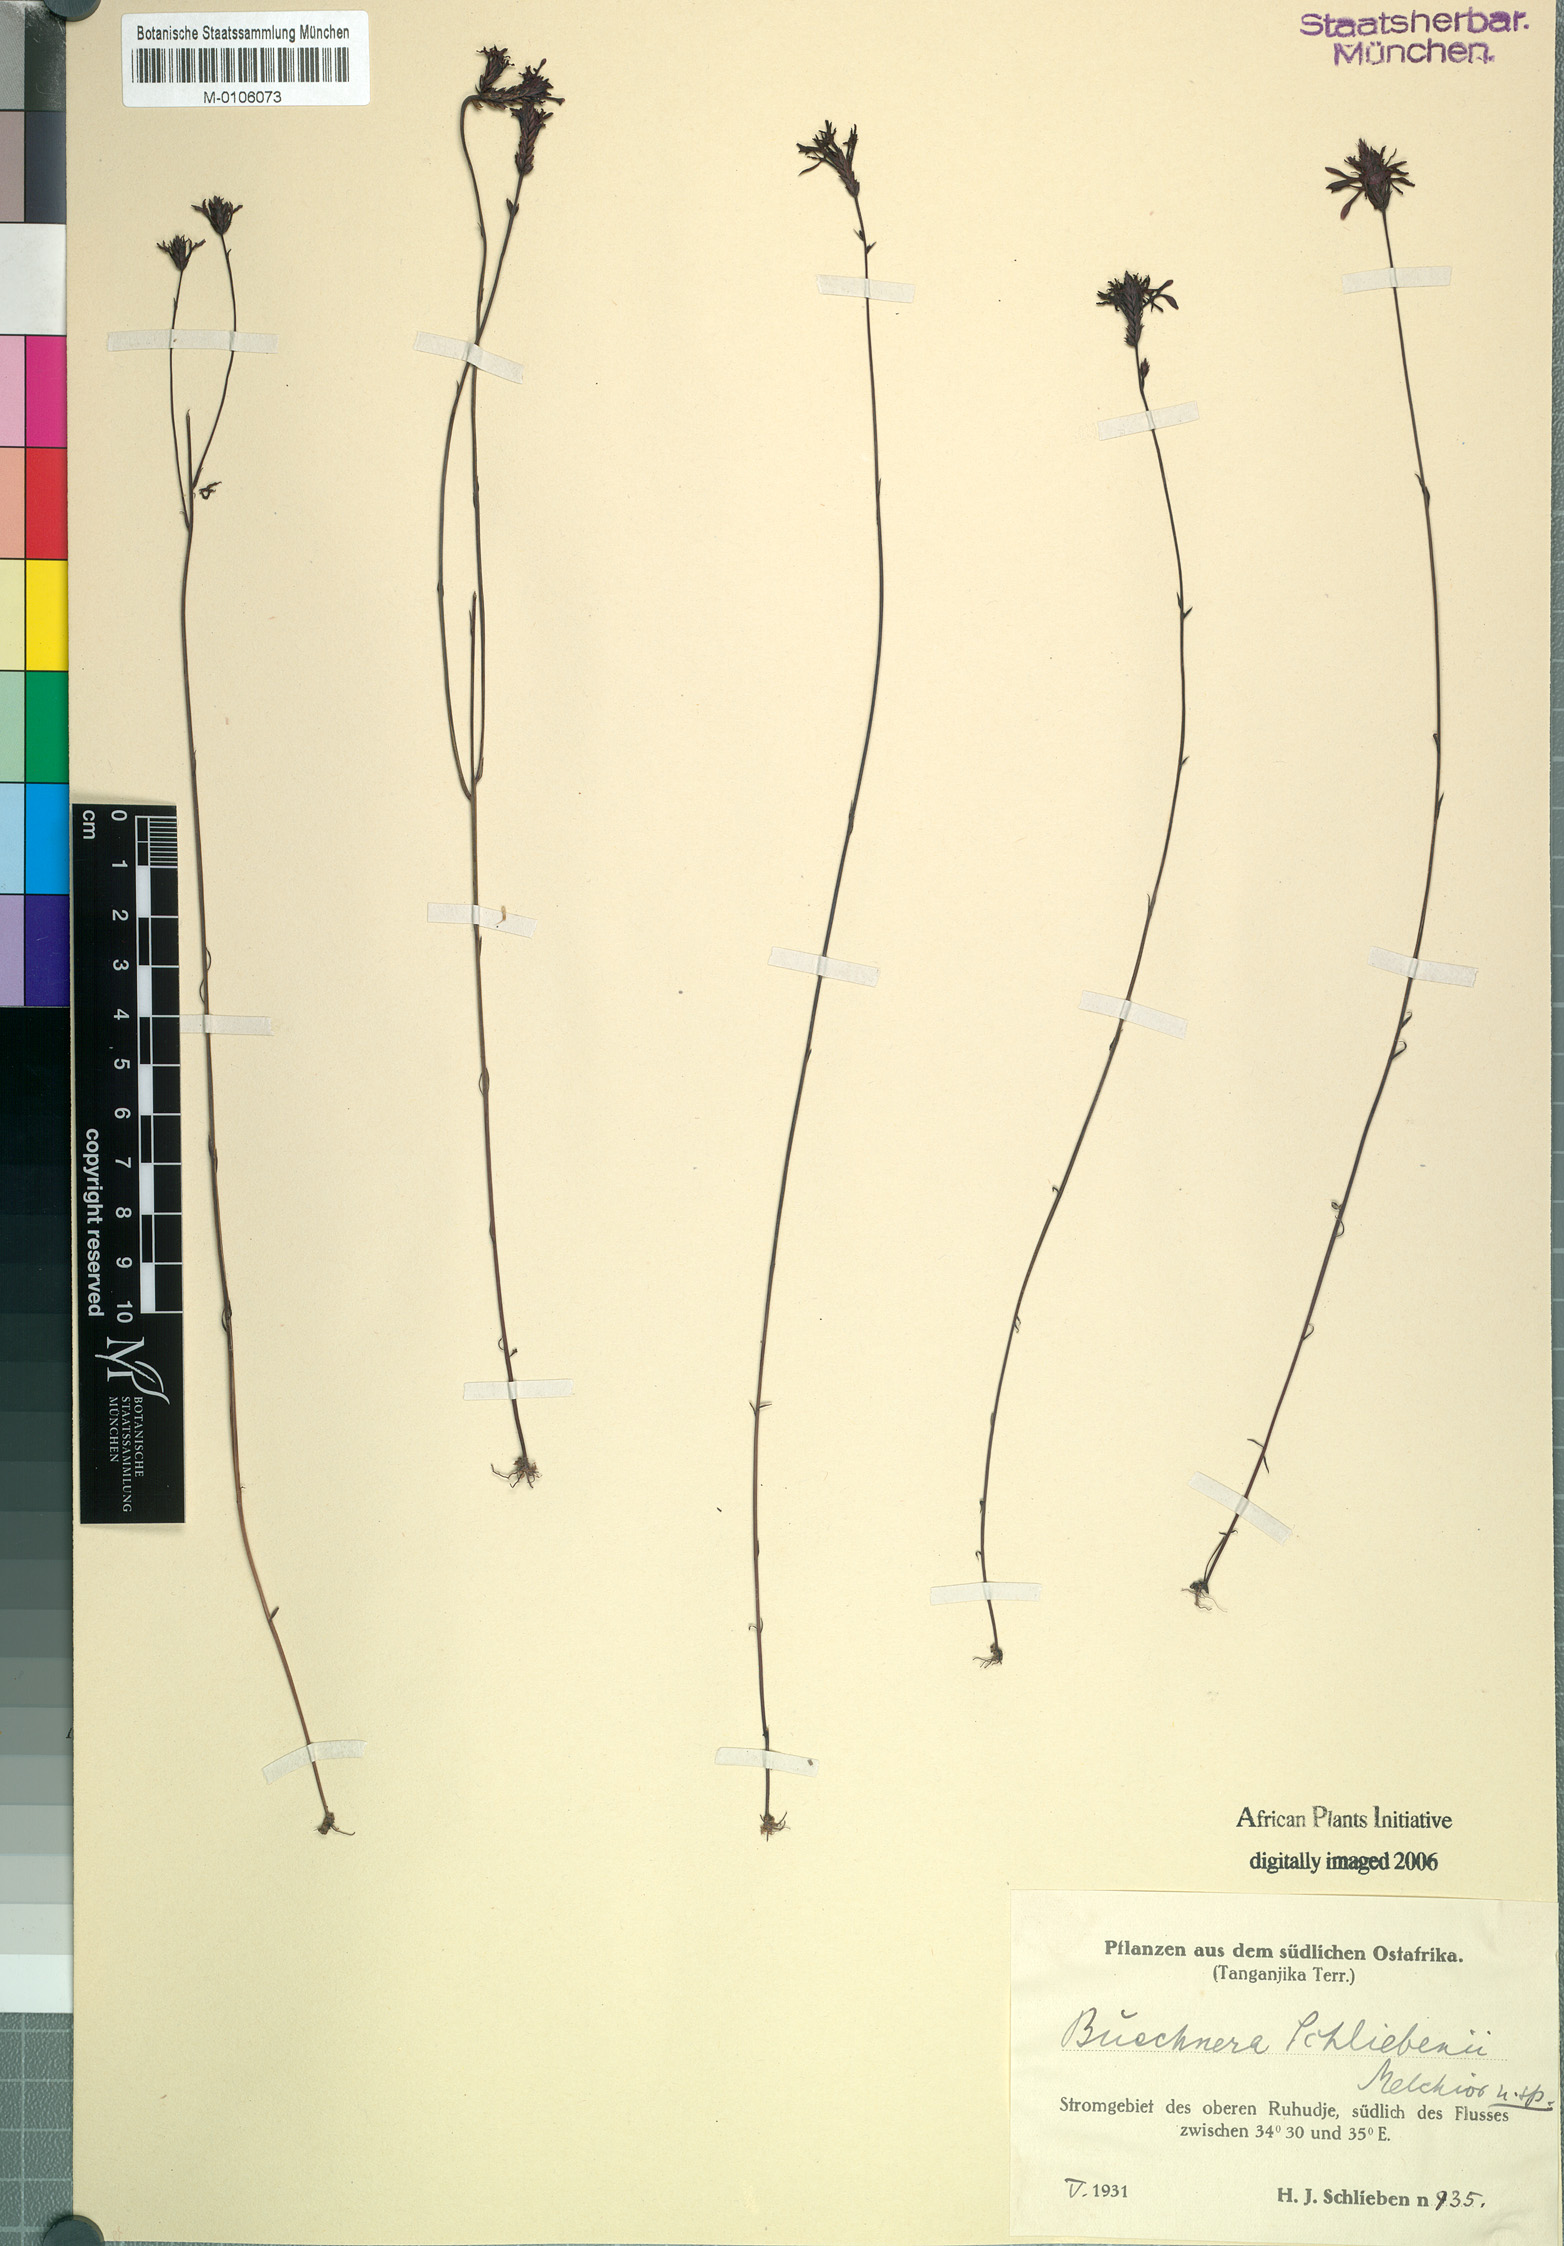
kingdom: Plantae
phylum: Tracheophyta
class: Magnoliopsida
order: Lamiales
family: Orobanchaceae
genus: Buchnera
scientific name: Buchnera schliebenii
